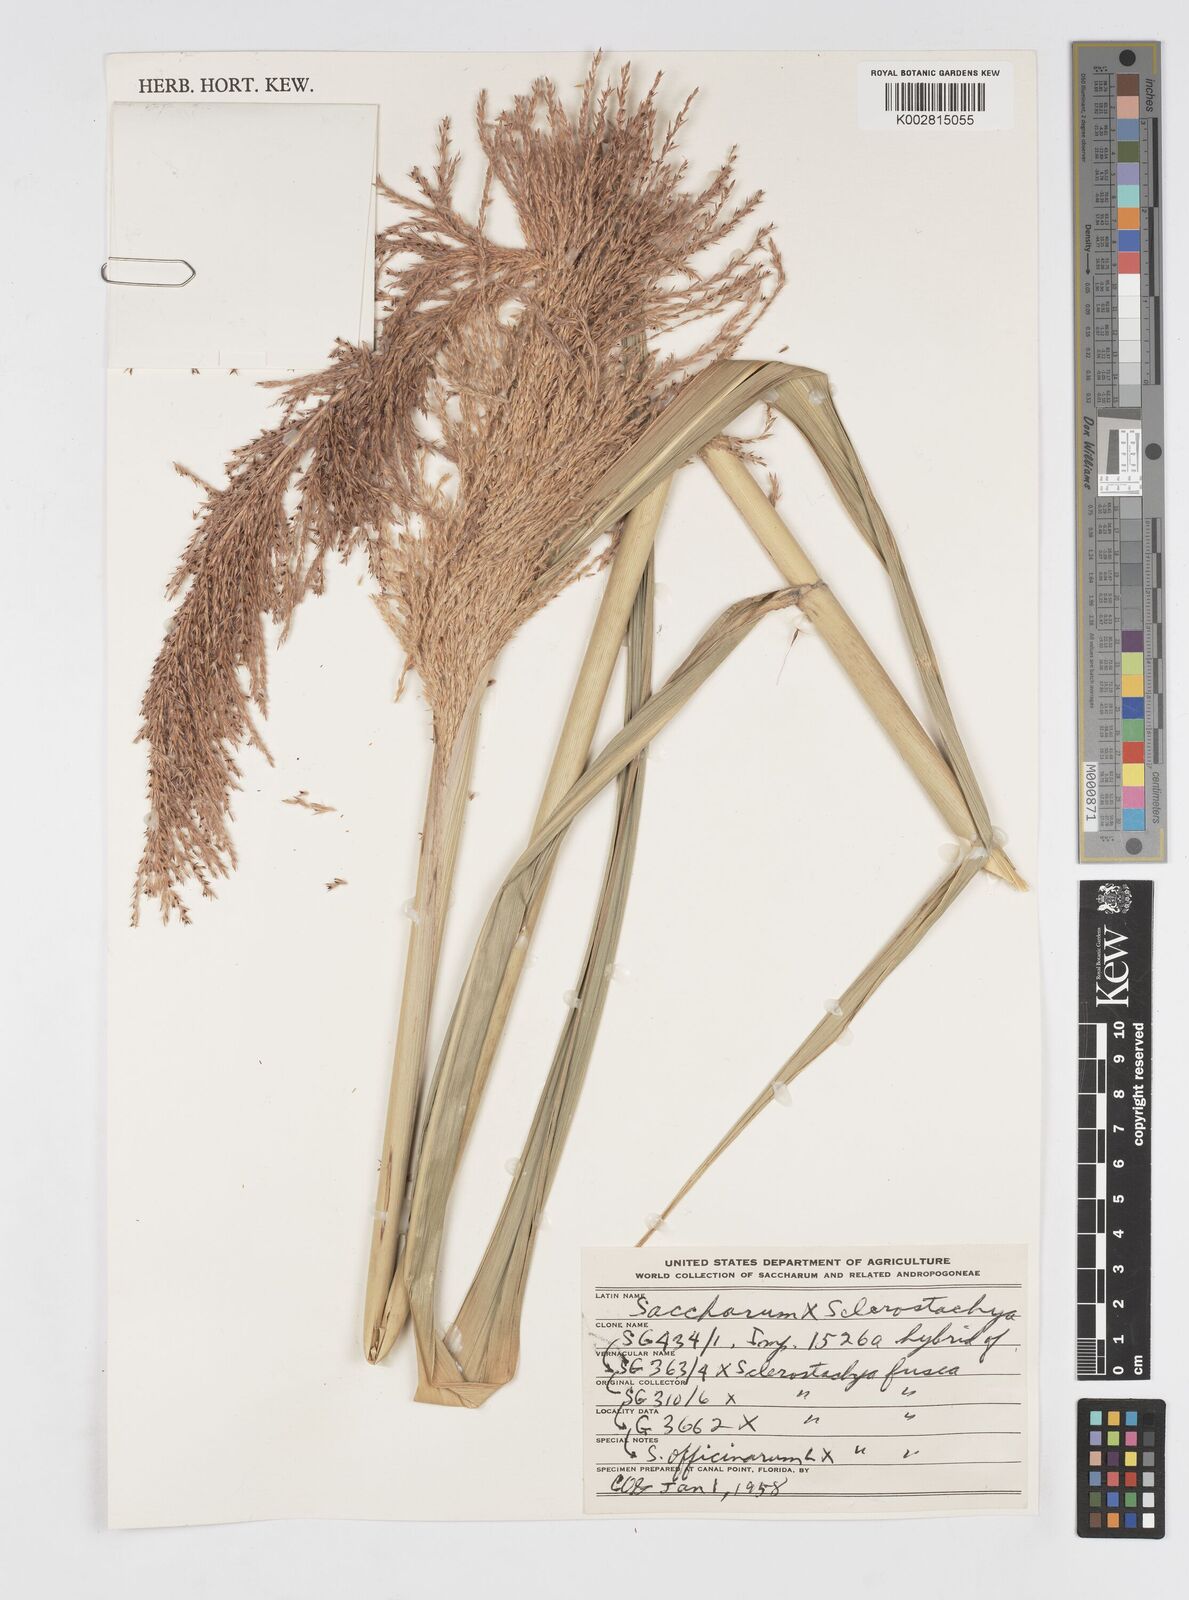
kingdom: Plantae
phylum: Tracheophyta
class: Liliopsida
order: Poales
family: Poaceae
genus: Saccharum
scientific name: Saccharum
